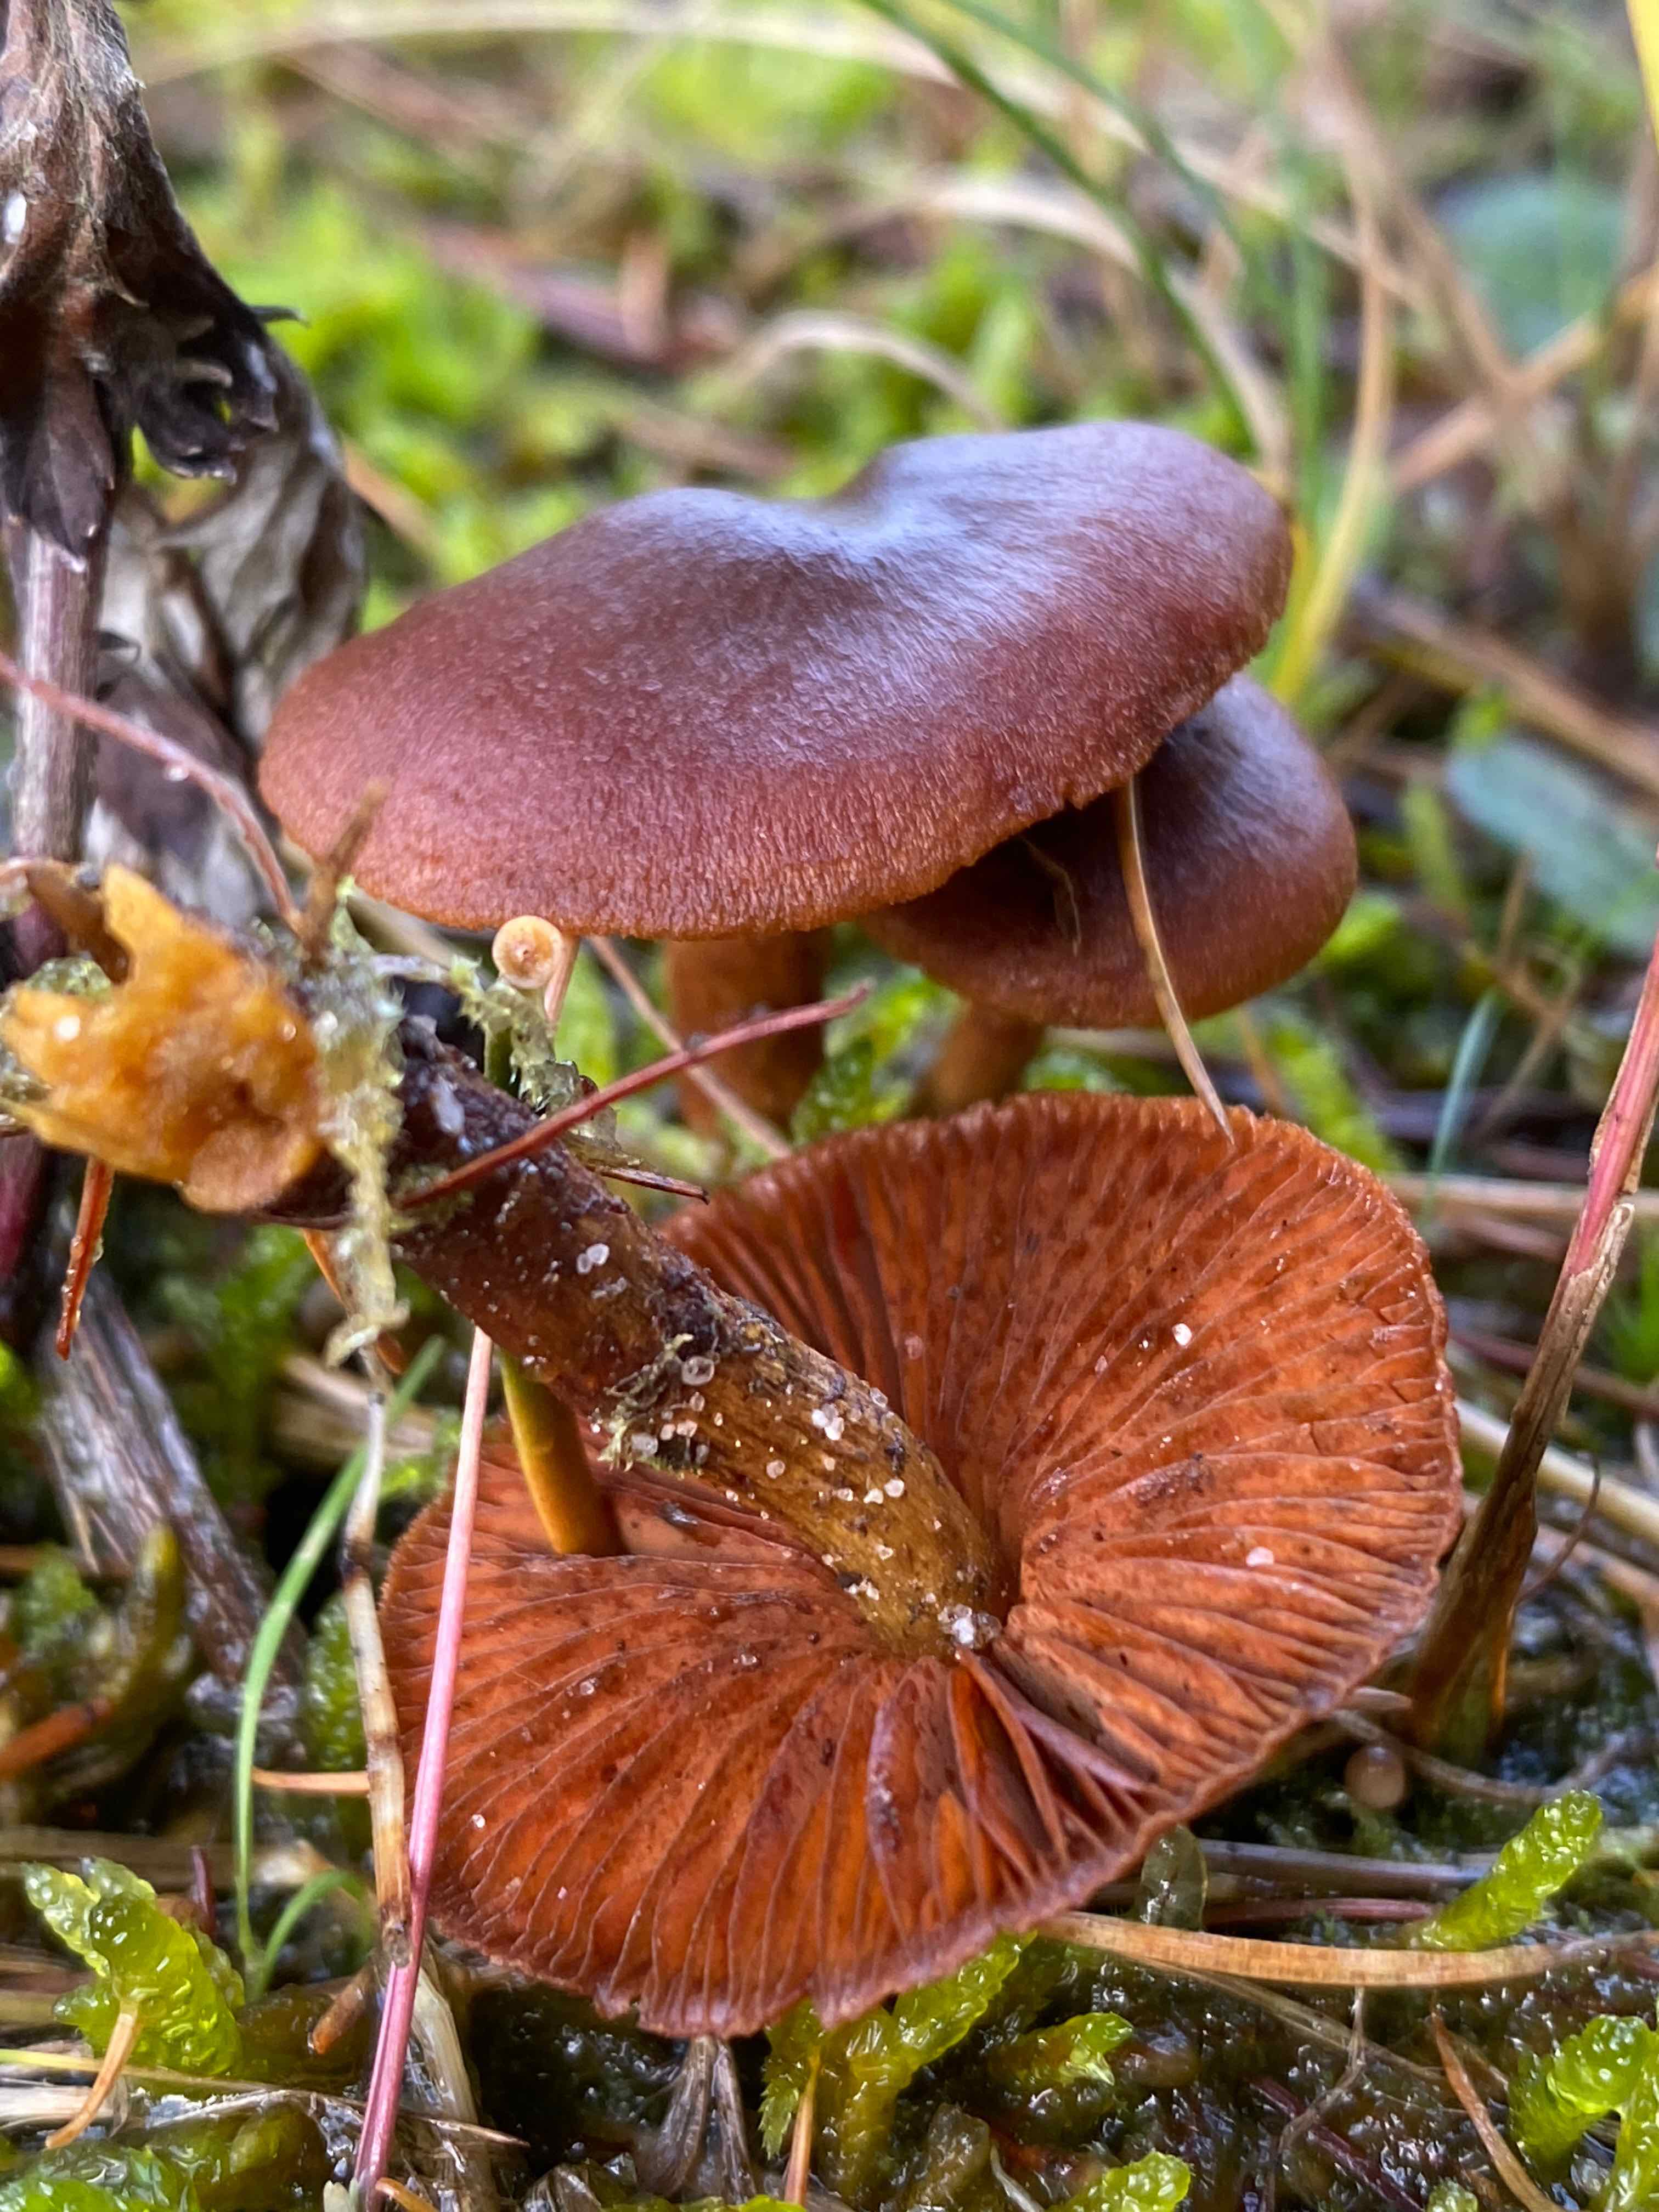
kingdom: Fungi
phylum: Basidiomycota
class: Agaricomycetes
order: Agaricales
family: Cortinariaceae
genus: Cortinarius
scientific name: Cortinarius
